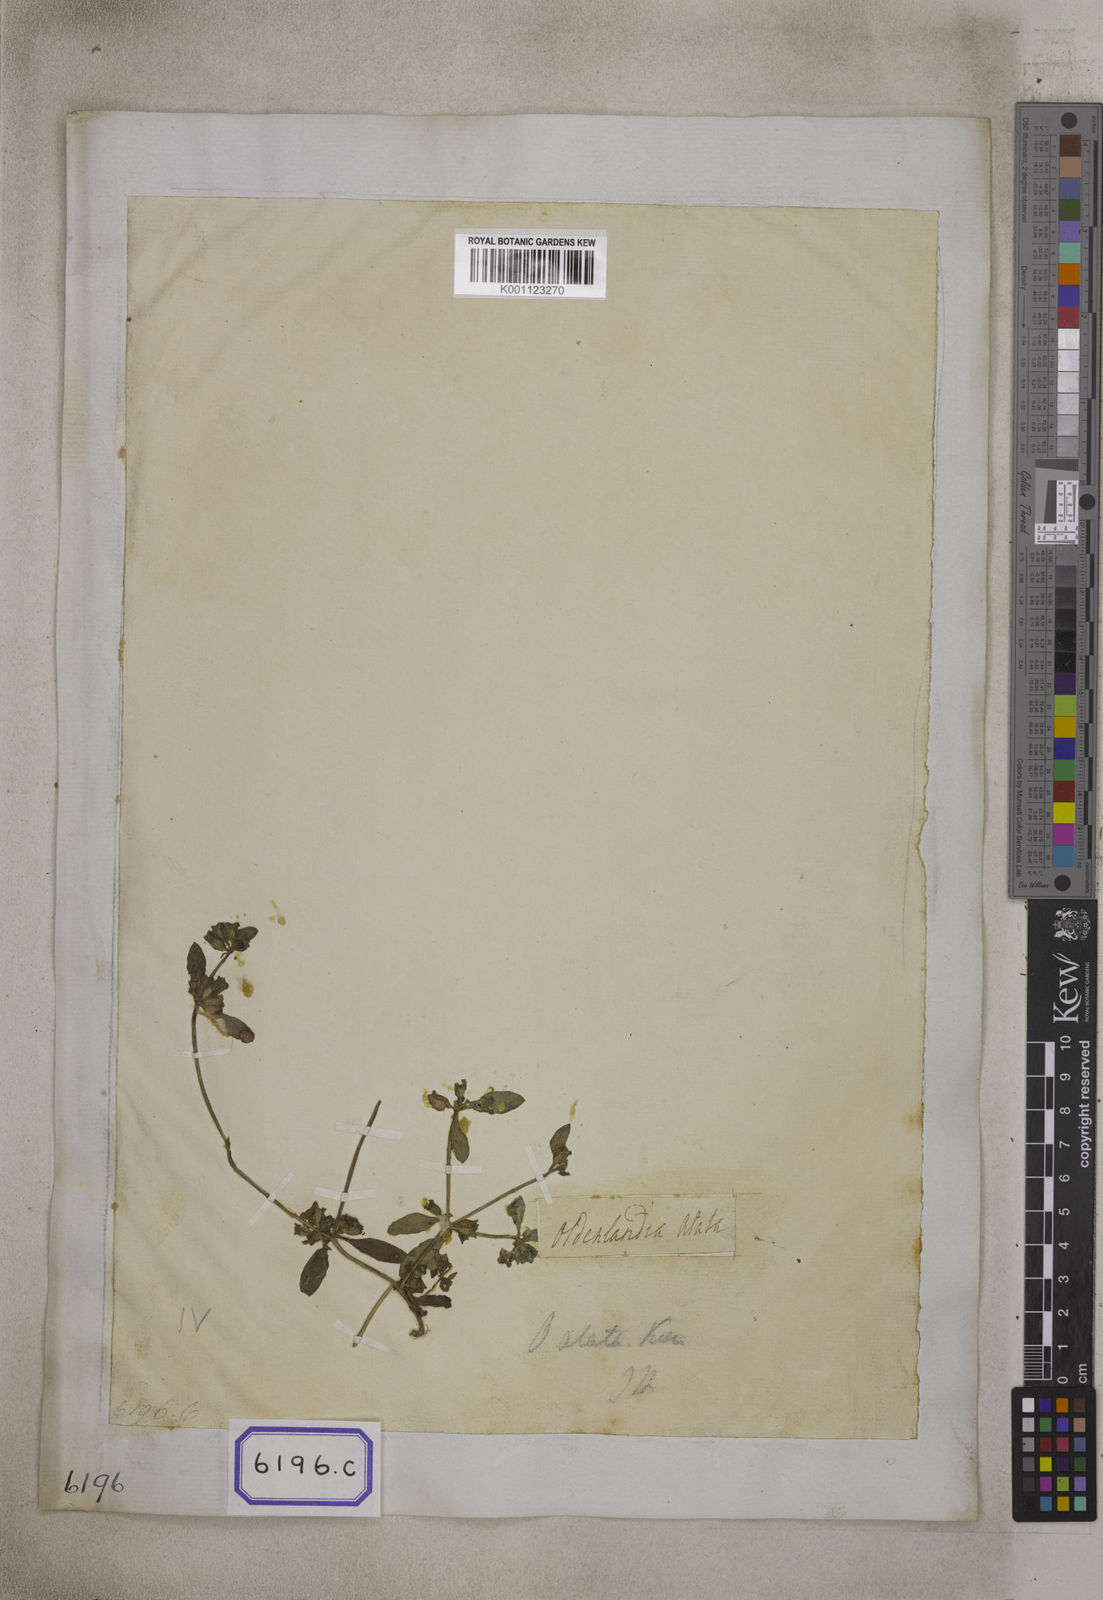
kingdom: Plantae
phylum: Tracheophyta
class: Magnoliopsida
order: Gentianales
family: Rubiaceae
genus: Hedyotis
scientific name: Hedyotis
